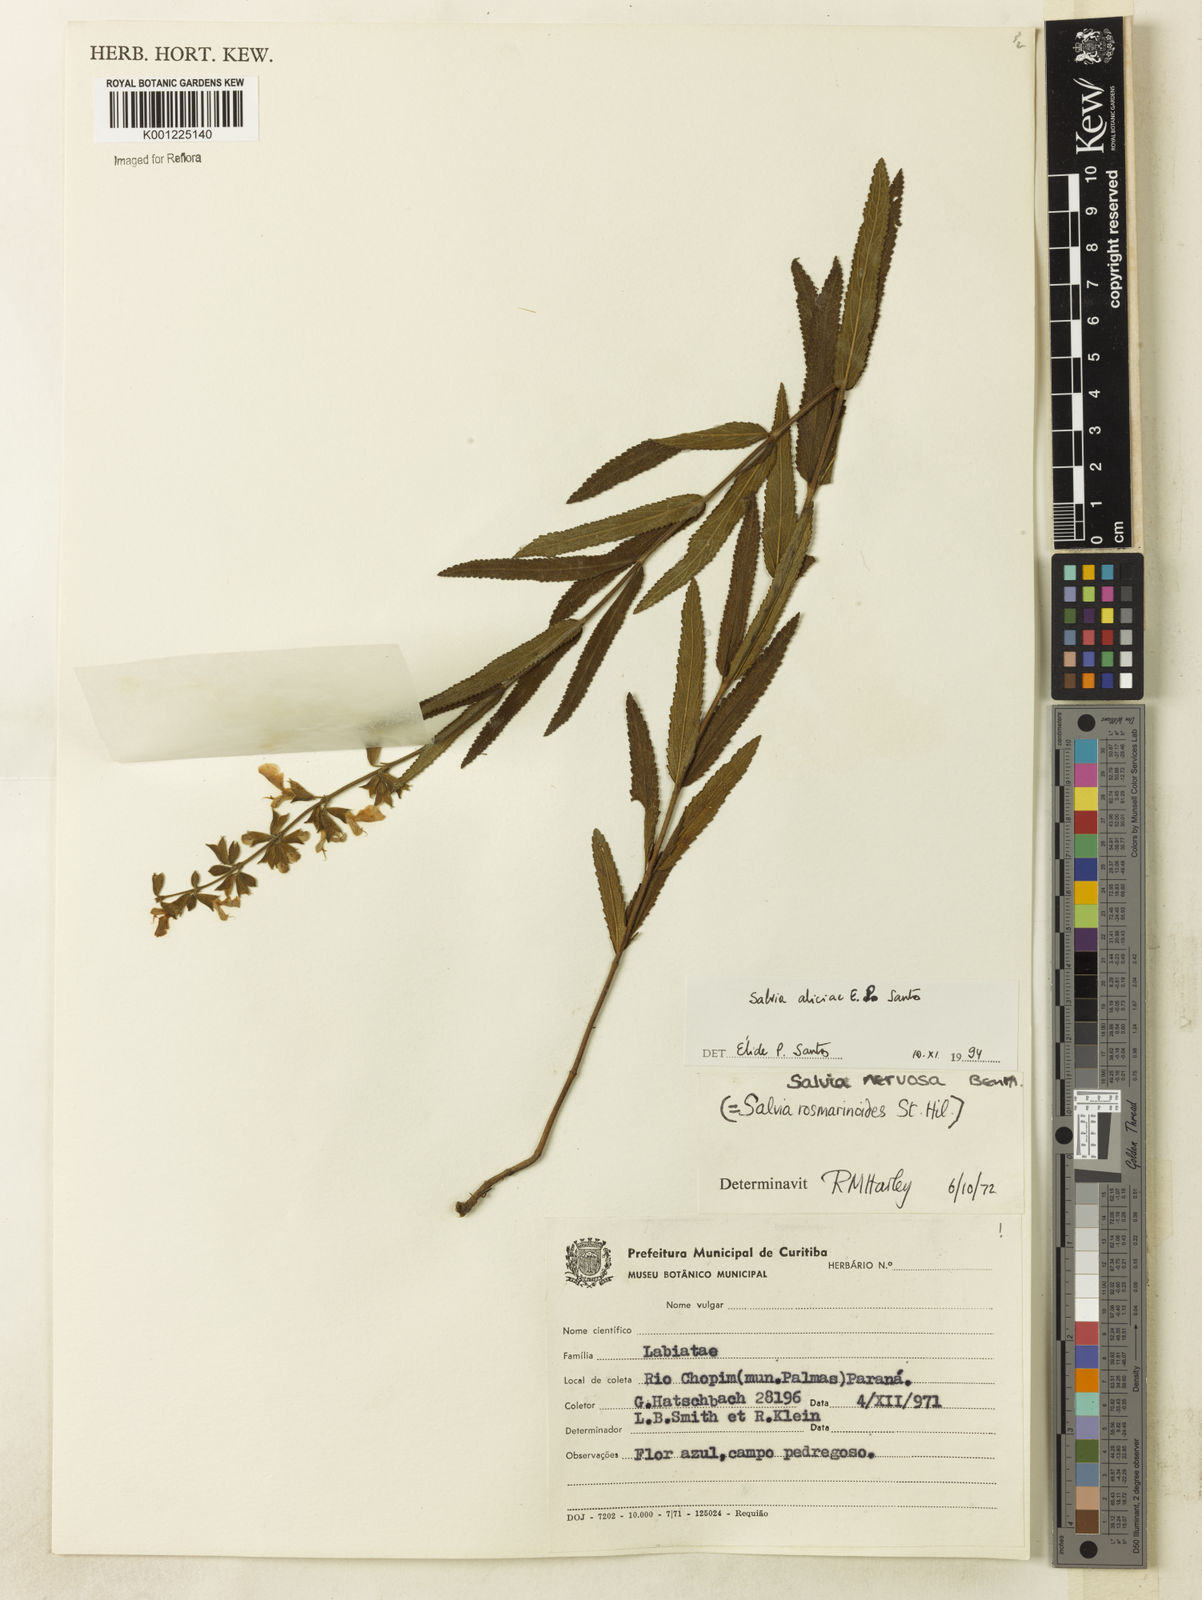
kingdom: Plantae
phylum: Tracheophyta
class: Magnoliopsida
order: Lamiales
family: Lamiaceae
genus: Salvia
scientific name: Salvia aliciae
